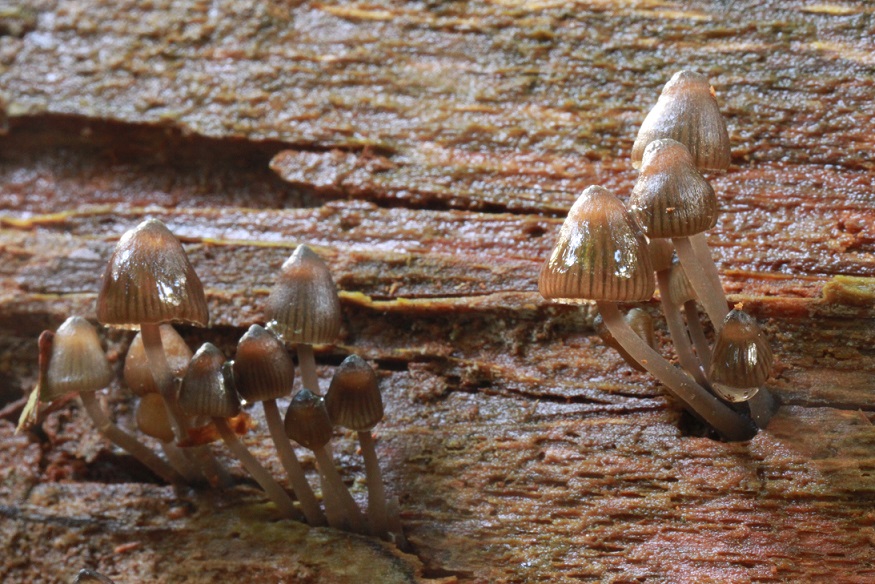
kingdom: Fungi
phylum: Basidiomycota
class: Agaricomycetes
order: Agaricales
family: Mycenaceae
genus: Mycena
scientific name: Mycena stipata
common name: stinkende huesvamp
